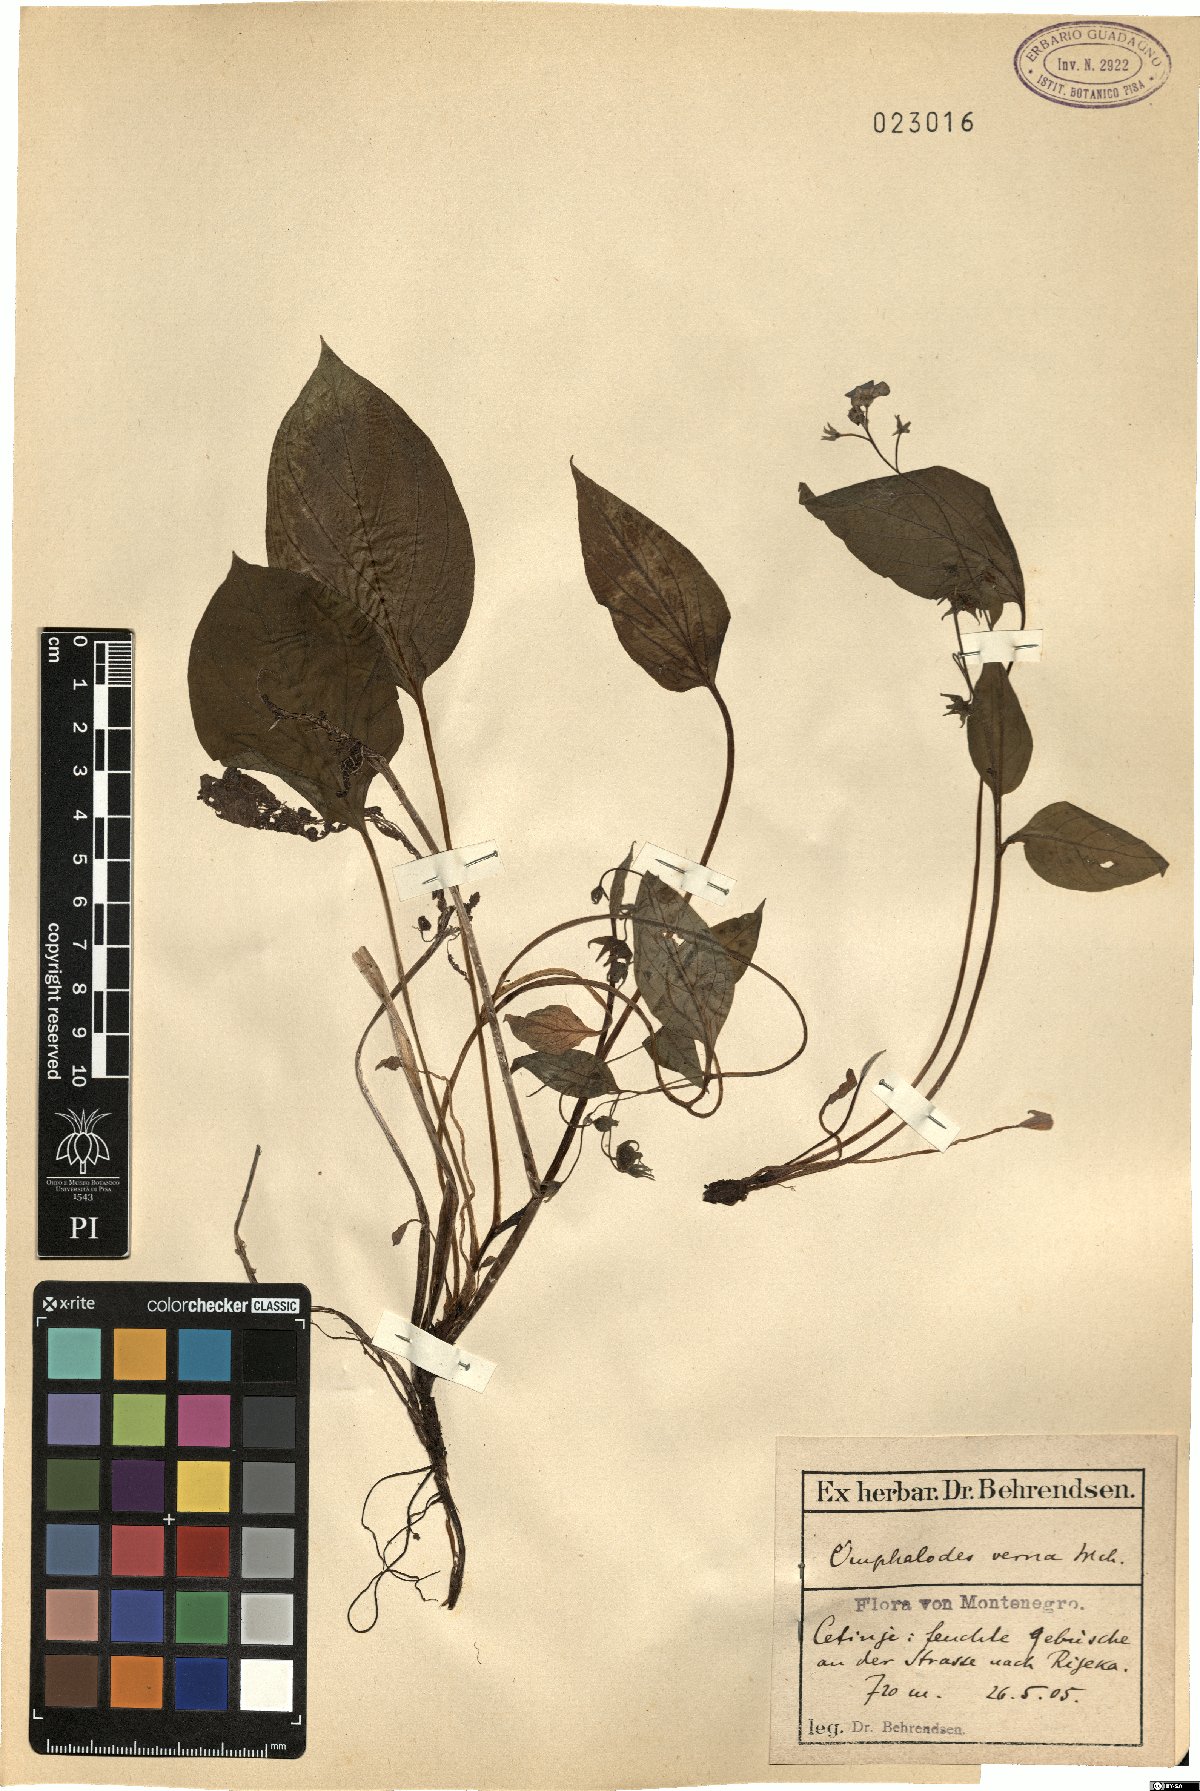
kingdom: Plantae
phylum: Tracheophyta
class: Magnoliopsida
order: Boraginales
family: Boraginaceae
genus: Omphalodes
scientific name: Omphalodes verna
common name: Blue-eyed-mary
